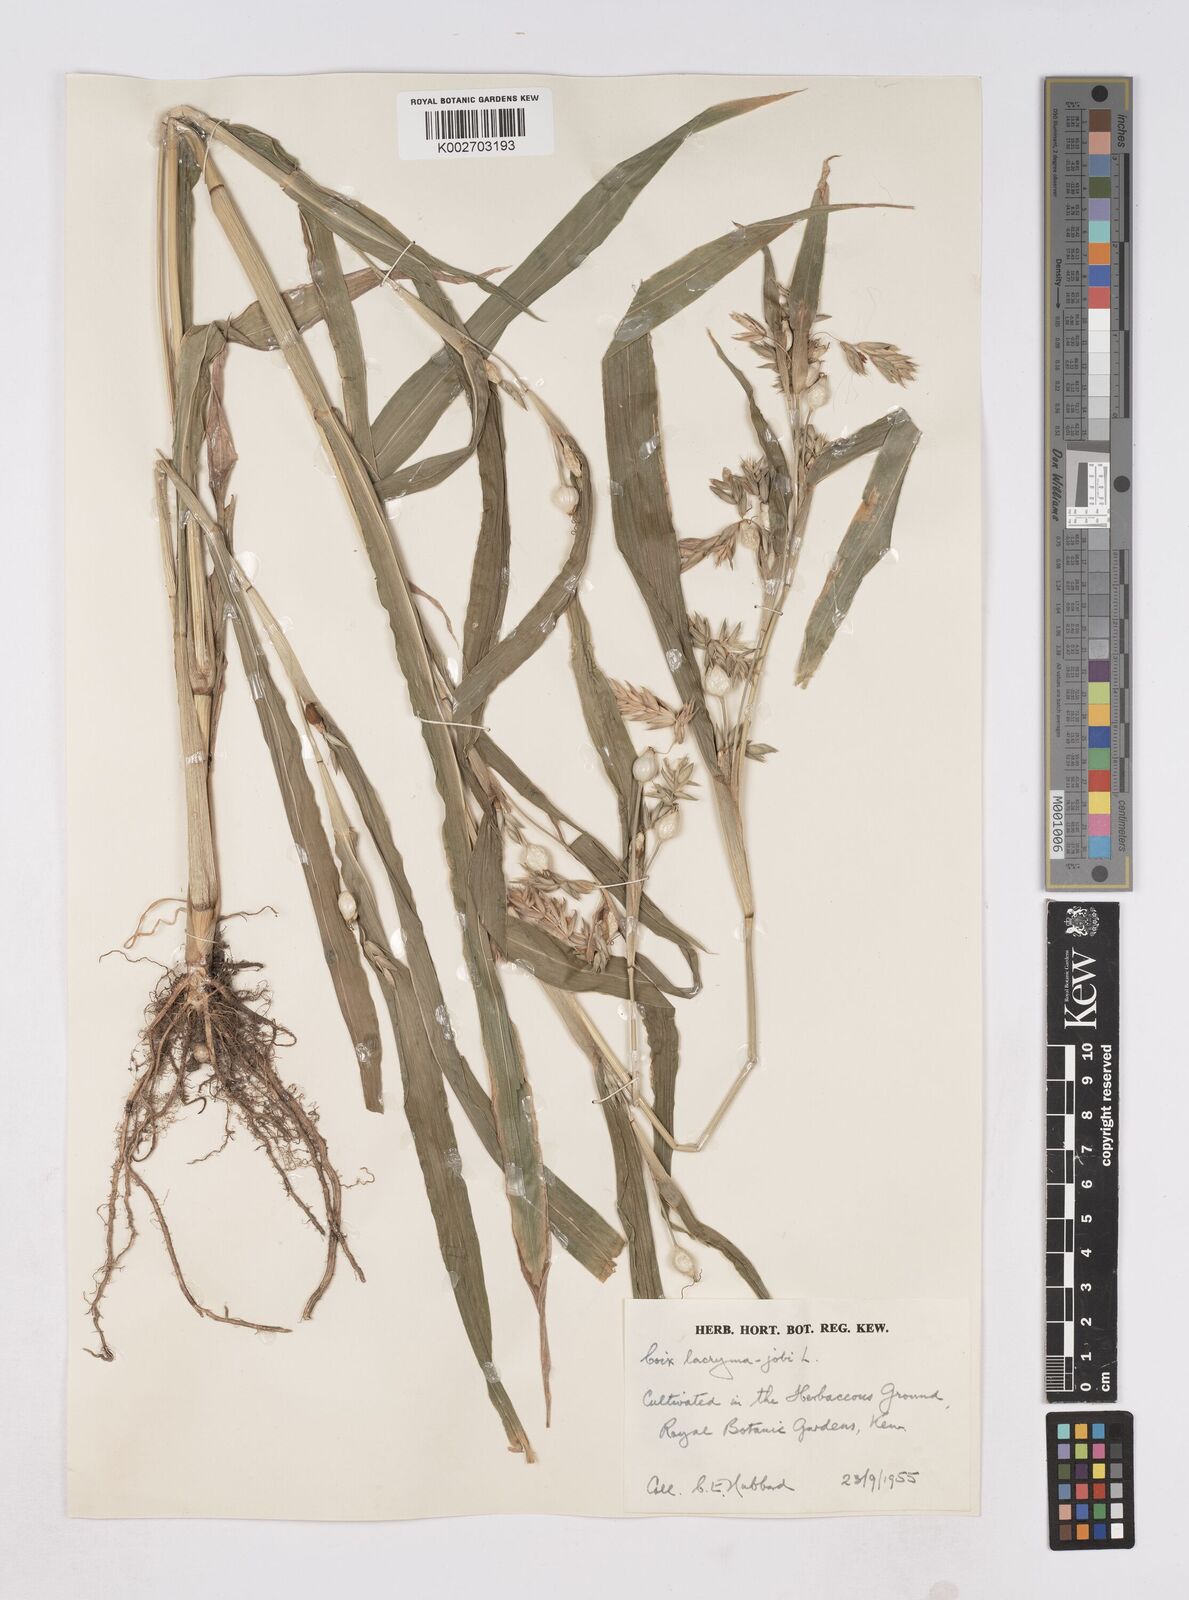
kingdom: Plantae
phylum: Tracheophyta
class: Liliopsida
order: Poales
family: Poaceae
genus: Coix
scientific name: Coix lacryma-jobi
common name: Job's tears
